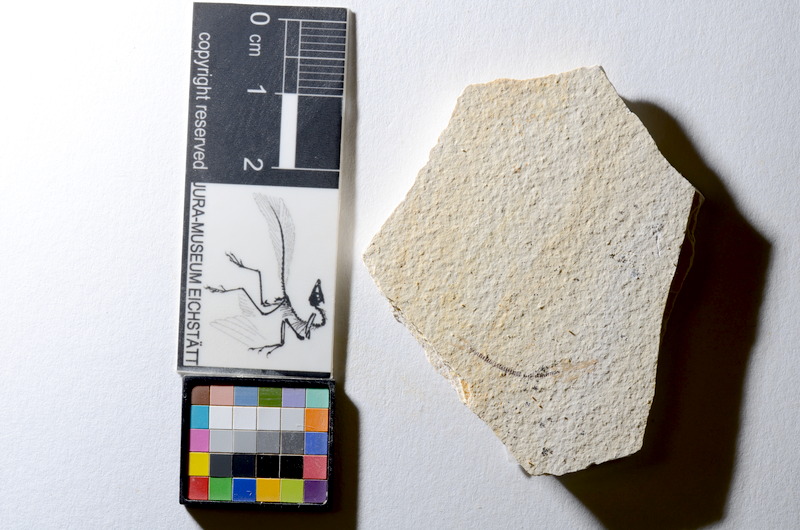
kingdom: Animalia
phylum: Chordata
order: Salmoniformes
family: Orthogonikleithridae
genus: Orthogonikleithrus
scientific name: Orthogonikleithrus hoelli
